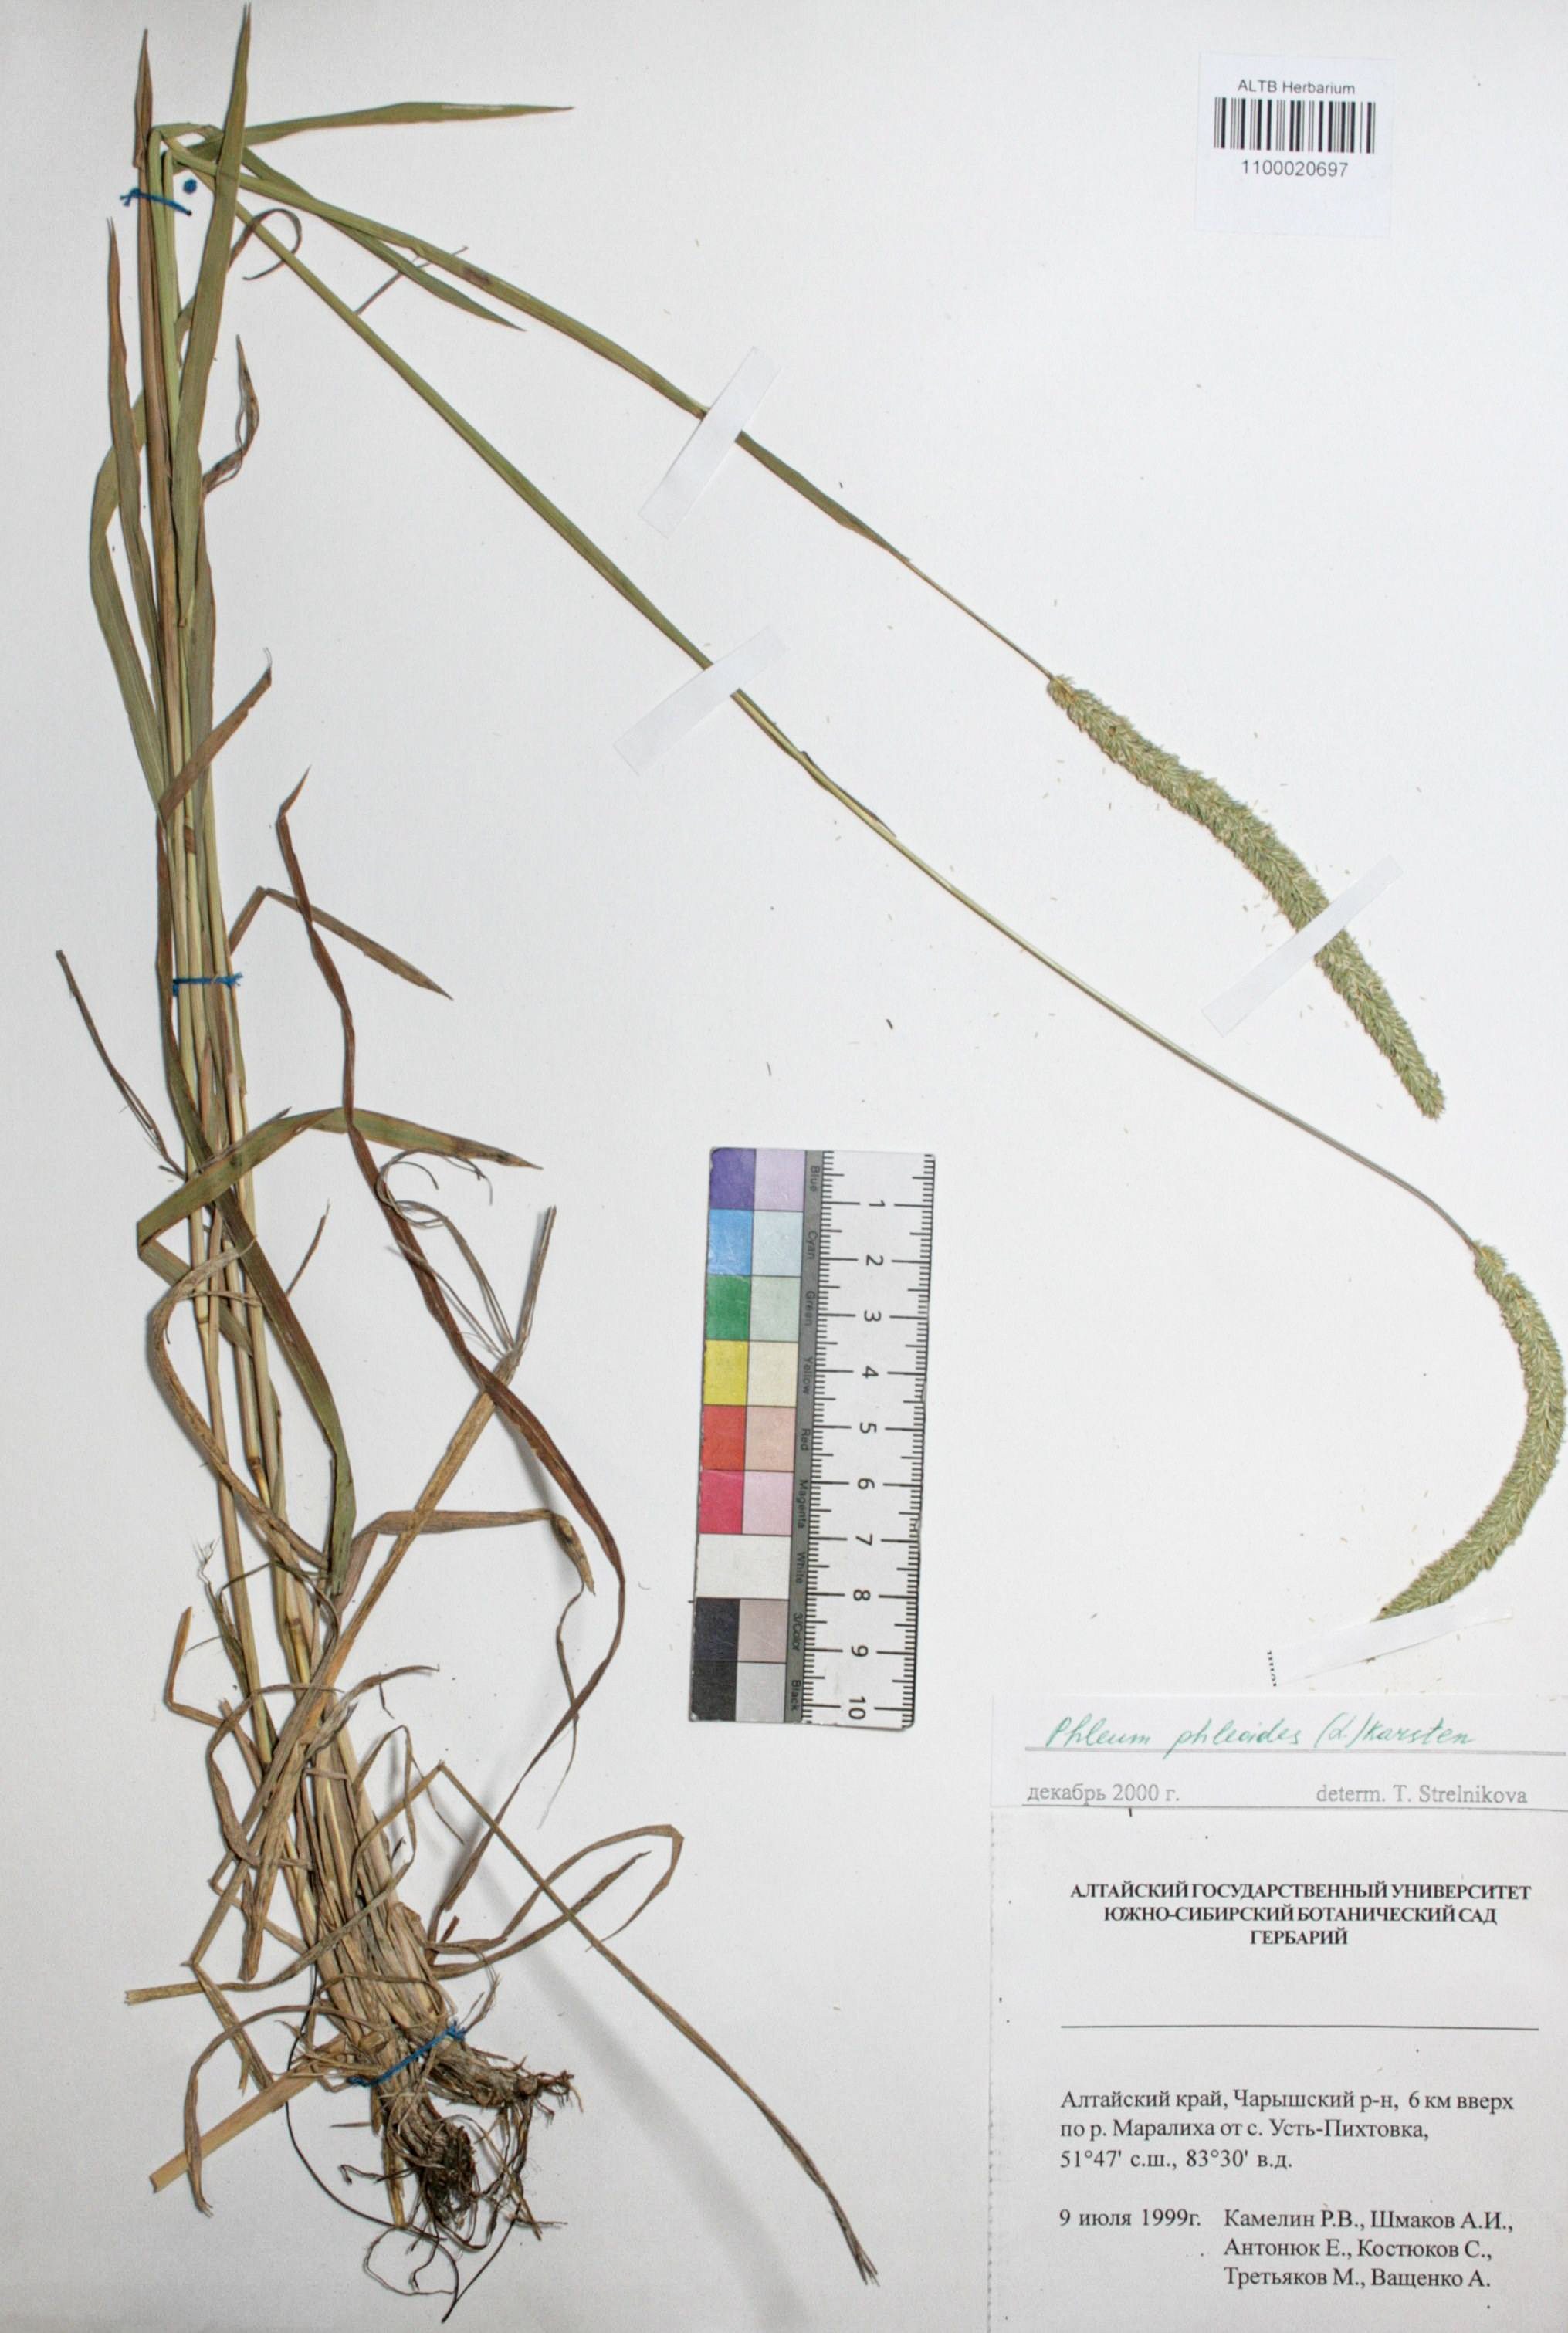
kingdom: Plantae
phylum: Tracheophyta
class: Liliopsida
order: Poales
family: Poaceae
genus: Phleum
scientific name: Phleum phleoides
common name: Purple-stem cat's-tail
